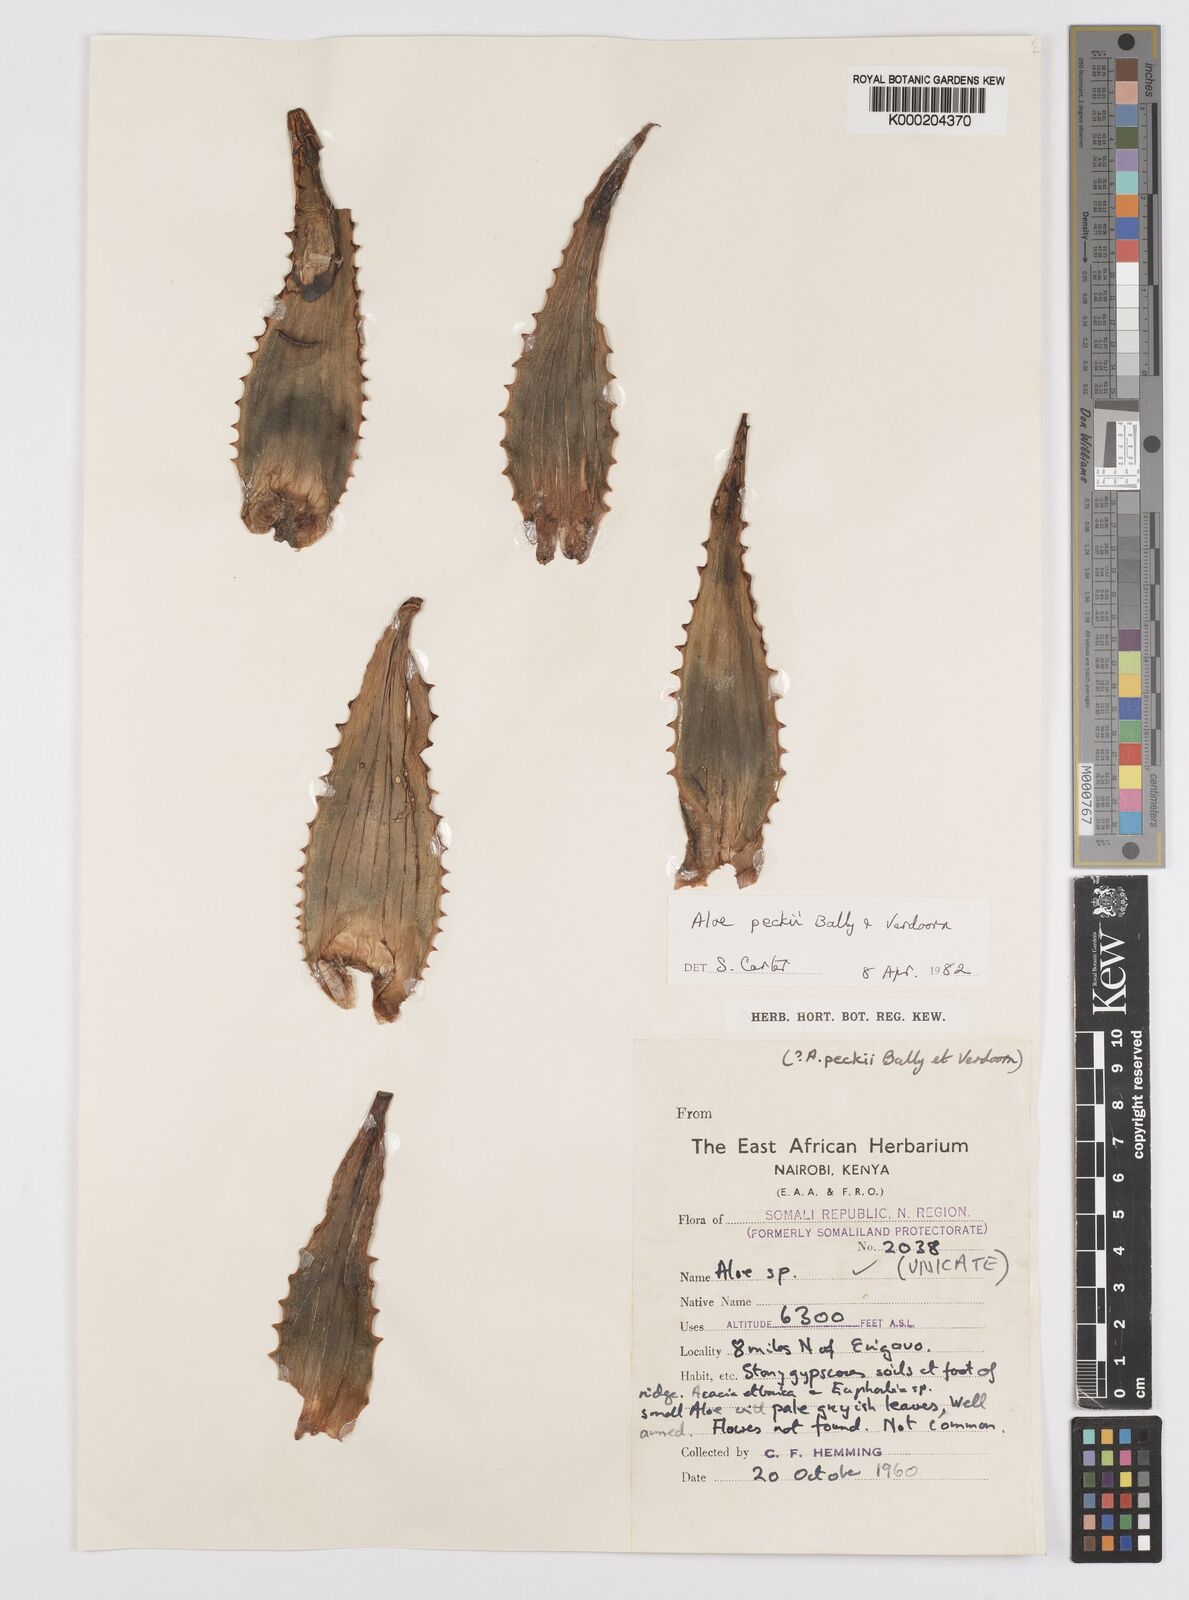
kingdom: Plantae
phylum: Tracheophyta
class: Liliopsida
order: Asparagales
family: Asphodelaceae
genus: Aloe
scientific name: Aloe peckii
